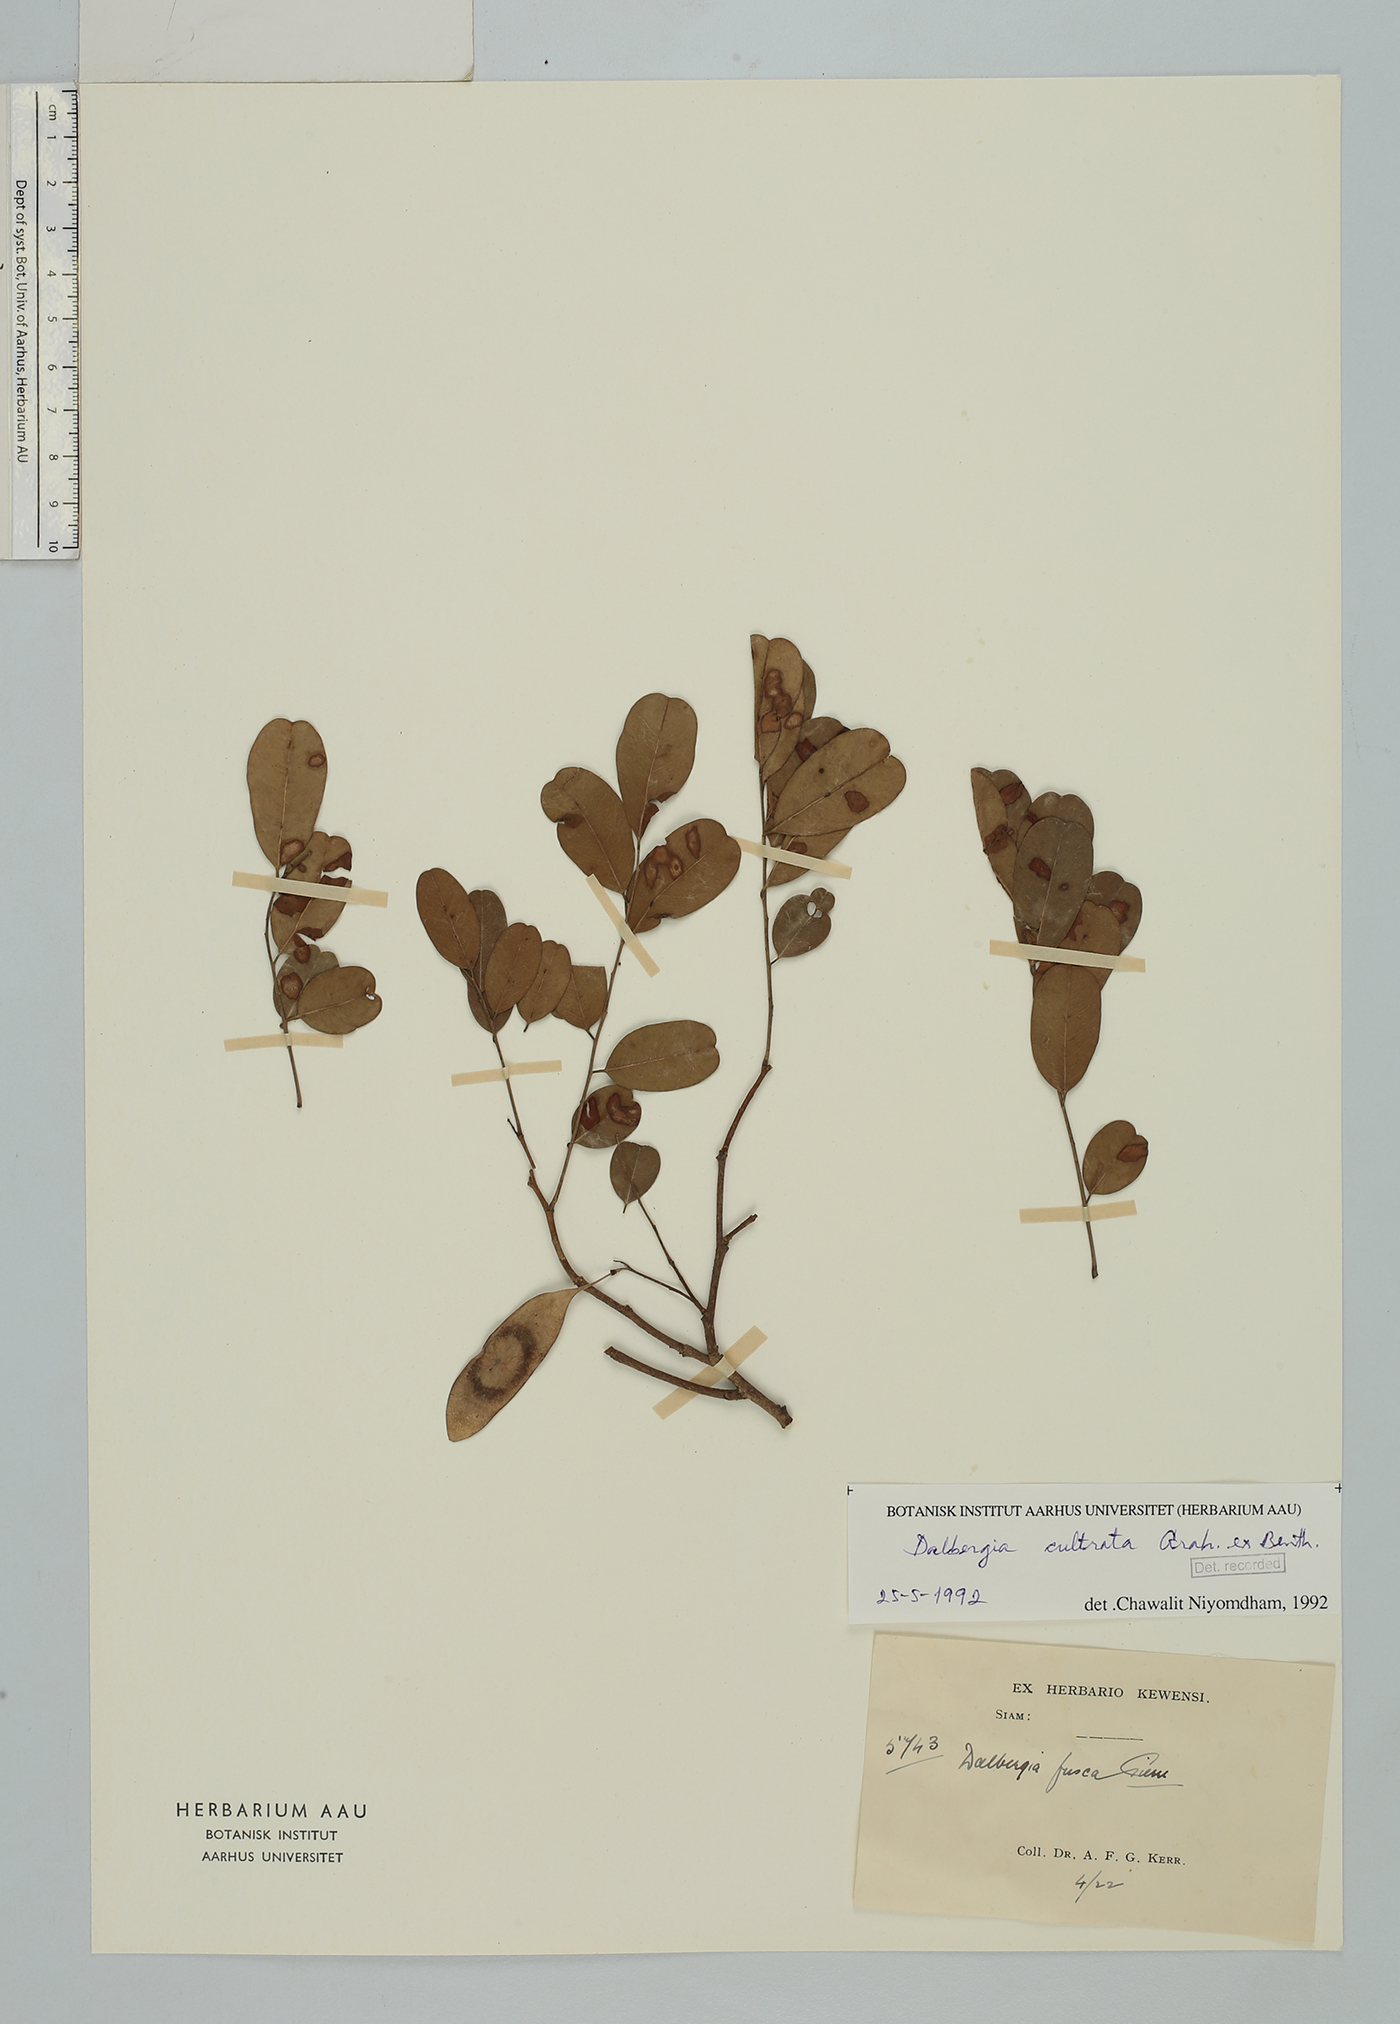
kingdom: Plantae
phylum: Tracheophyta
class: Magnoliopsida
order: Fabales
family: Fabaceae
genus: Dalbergia
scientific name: Dalbergia cultrata
